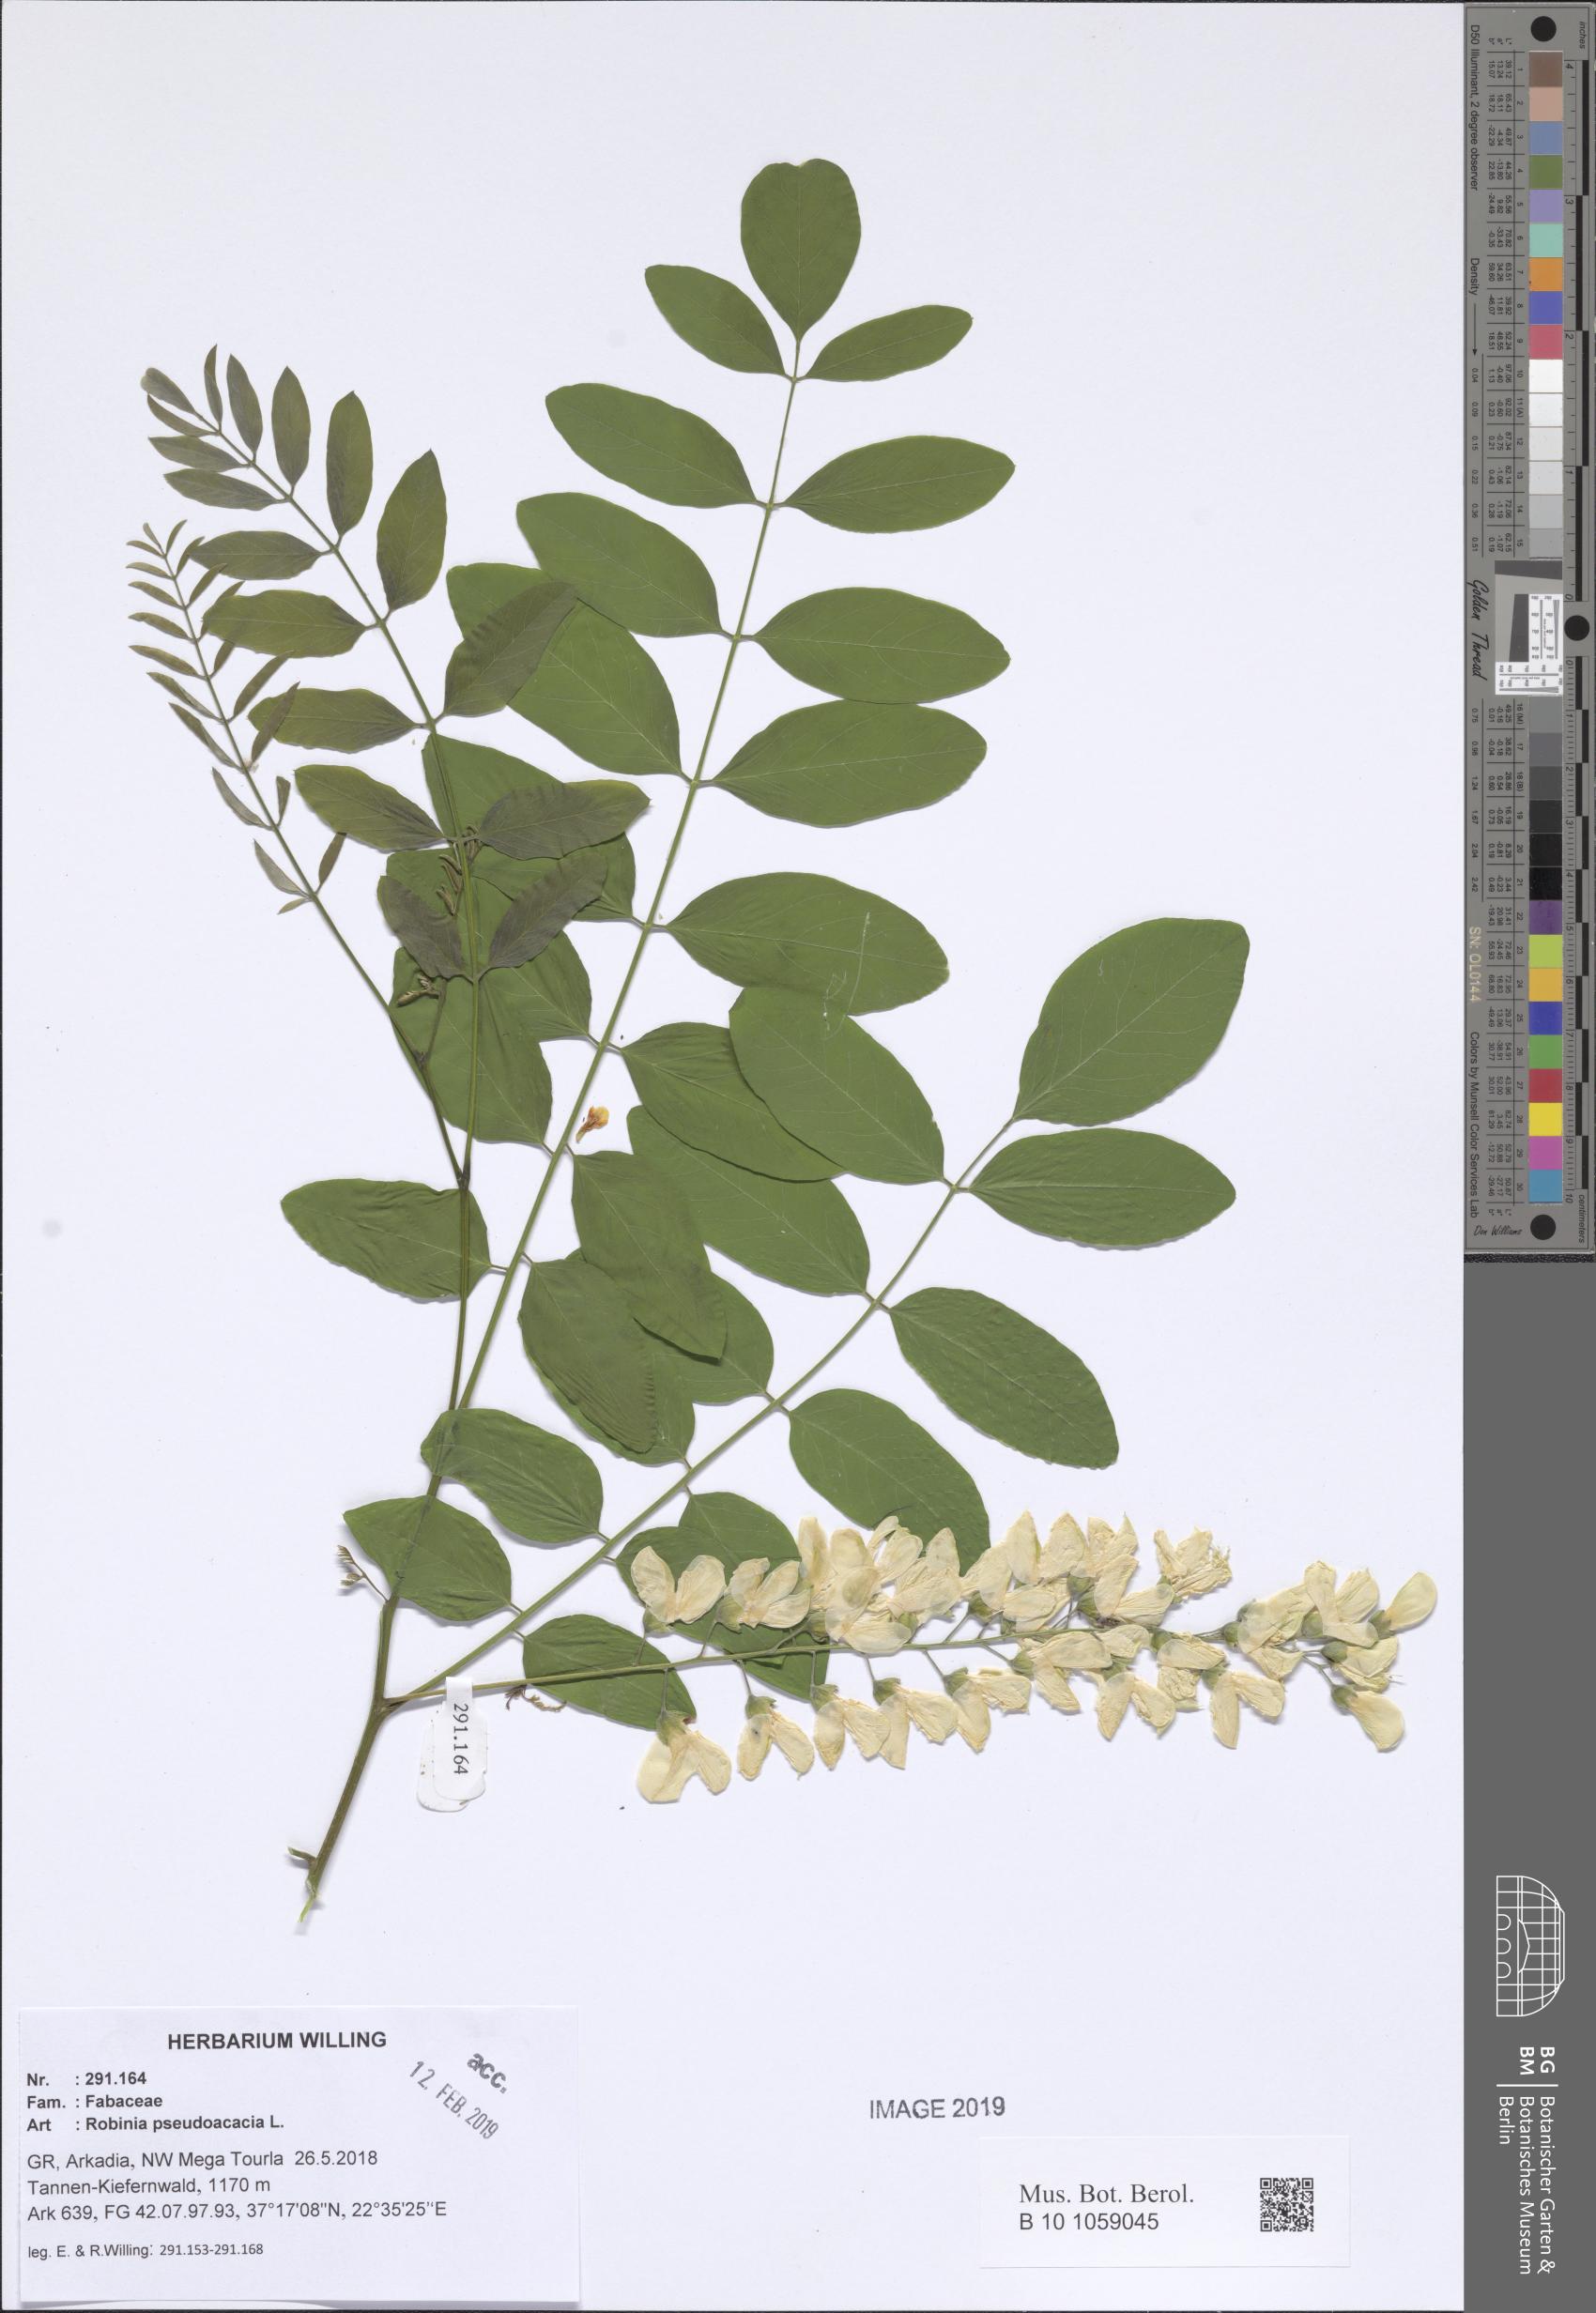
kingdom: Plantae
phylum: Tracheophyta
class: Magnoliopsida
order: Fabales
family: Fabaceae
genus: Robinia
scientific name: Robinia pseudoacacia
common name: Black locust
